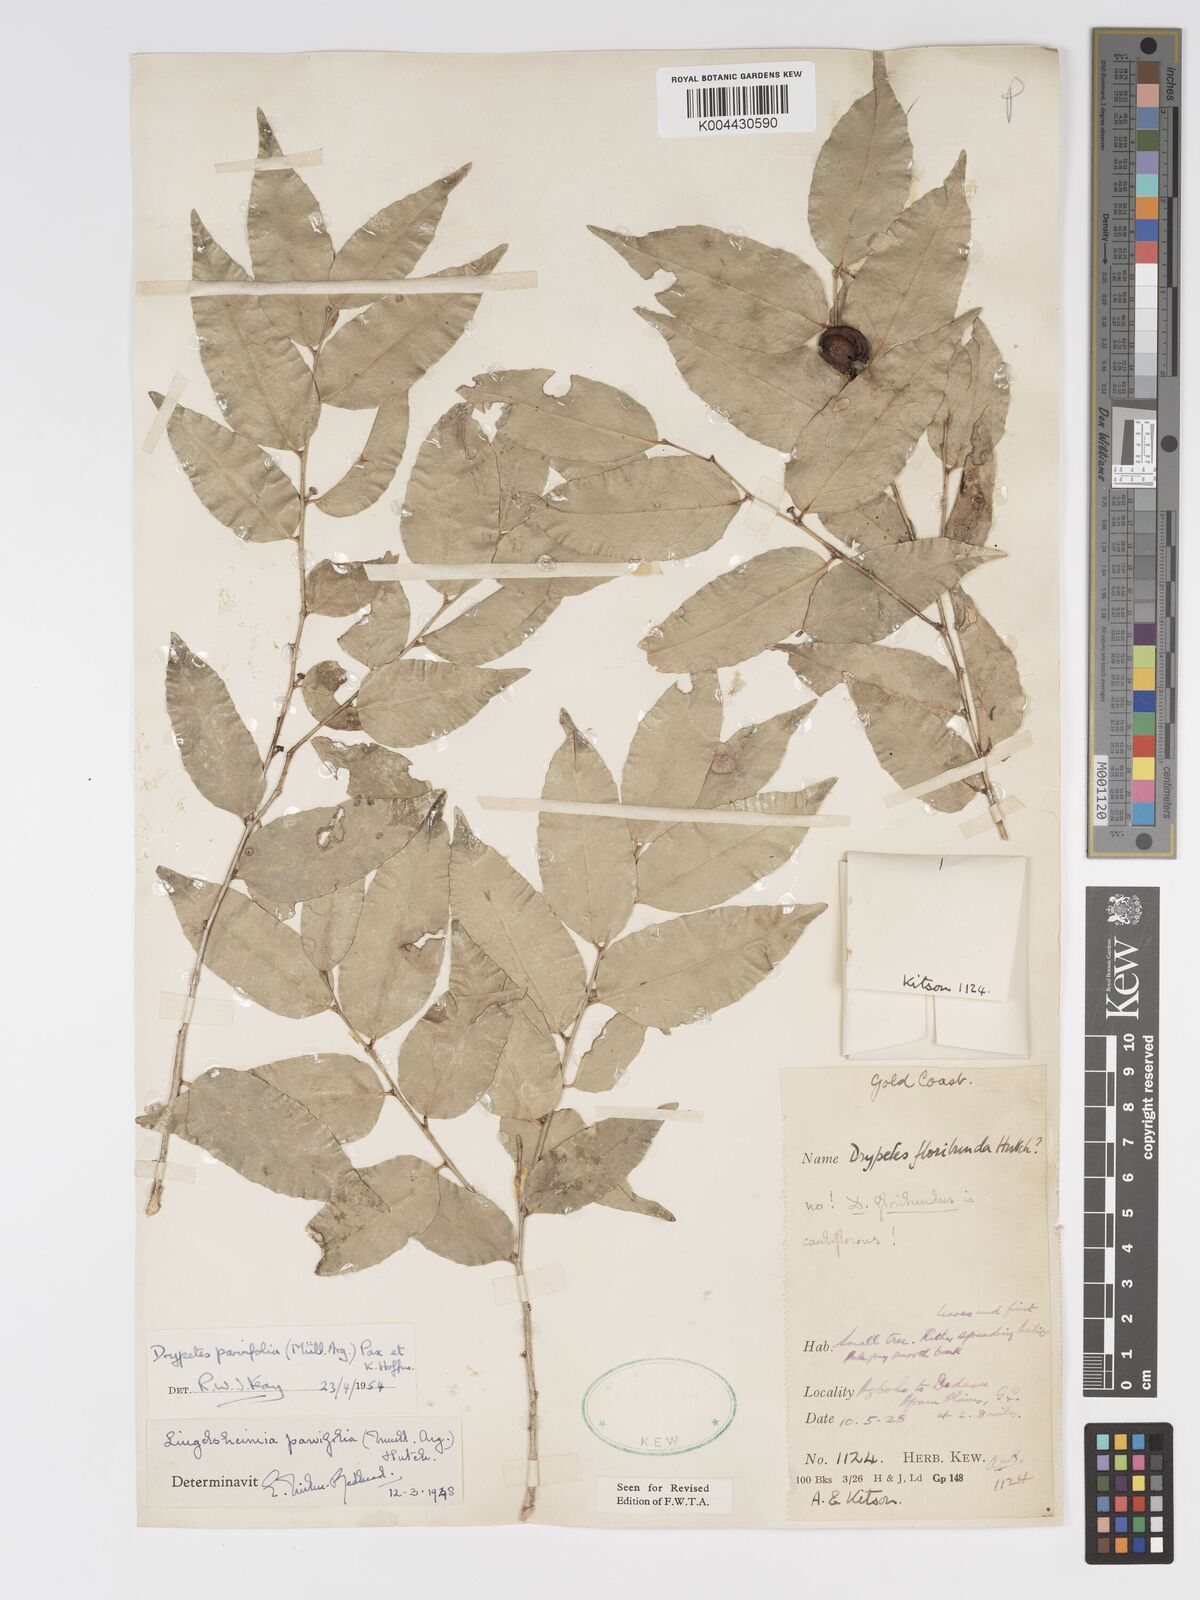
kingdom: Plantae
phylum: Tracheophyta
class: Magnoliopsida
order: Malpighiales
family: Putranjivaceae
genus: Drypetes
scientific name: Drypetes parvifolia
